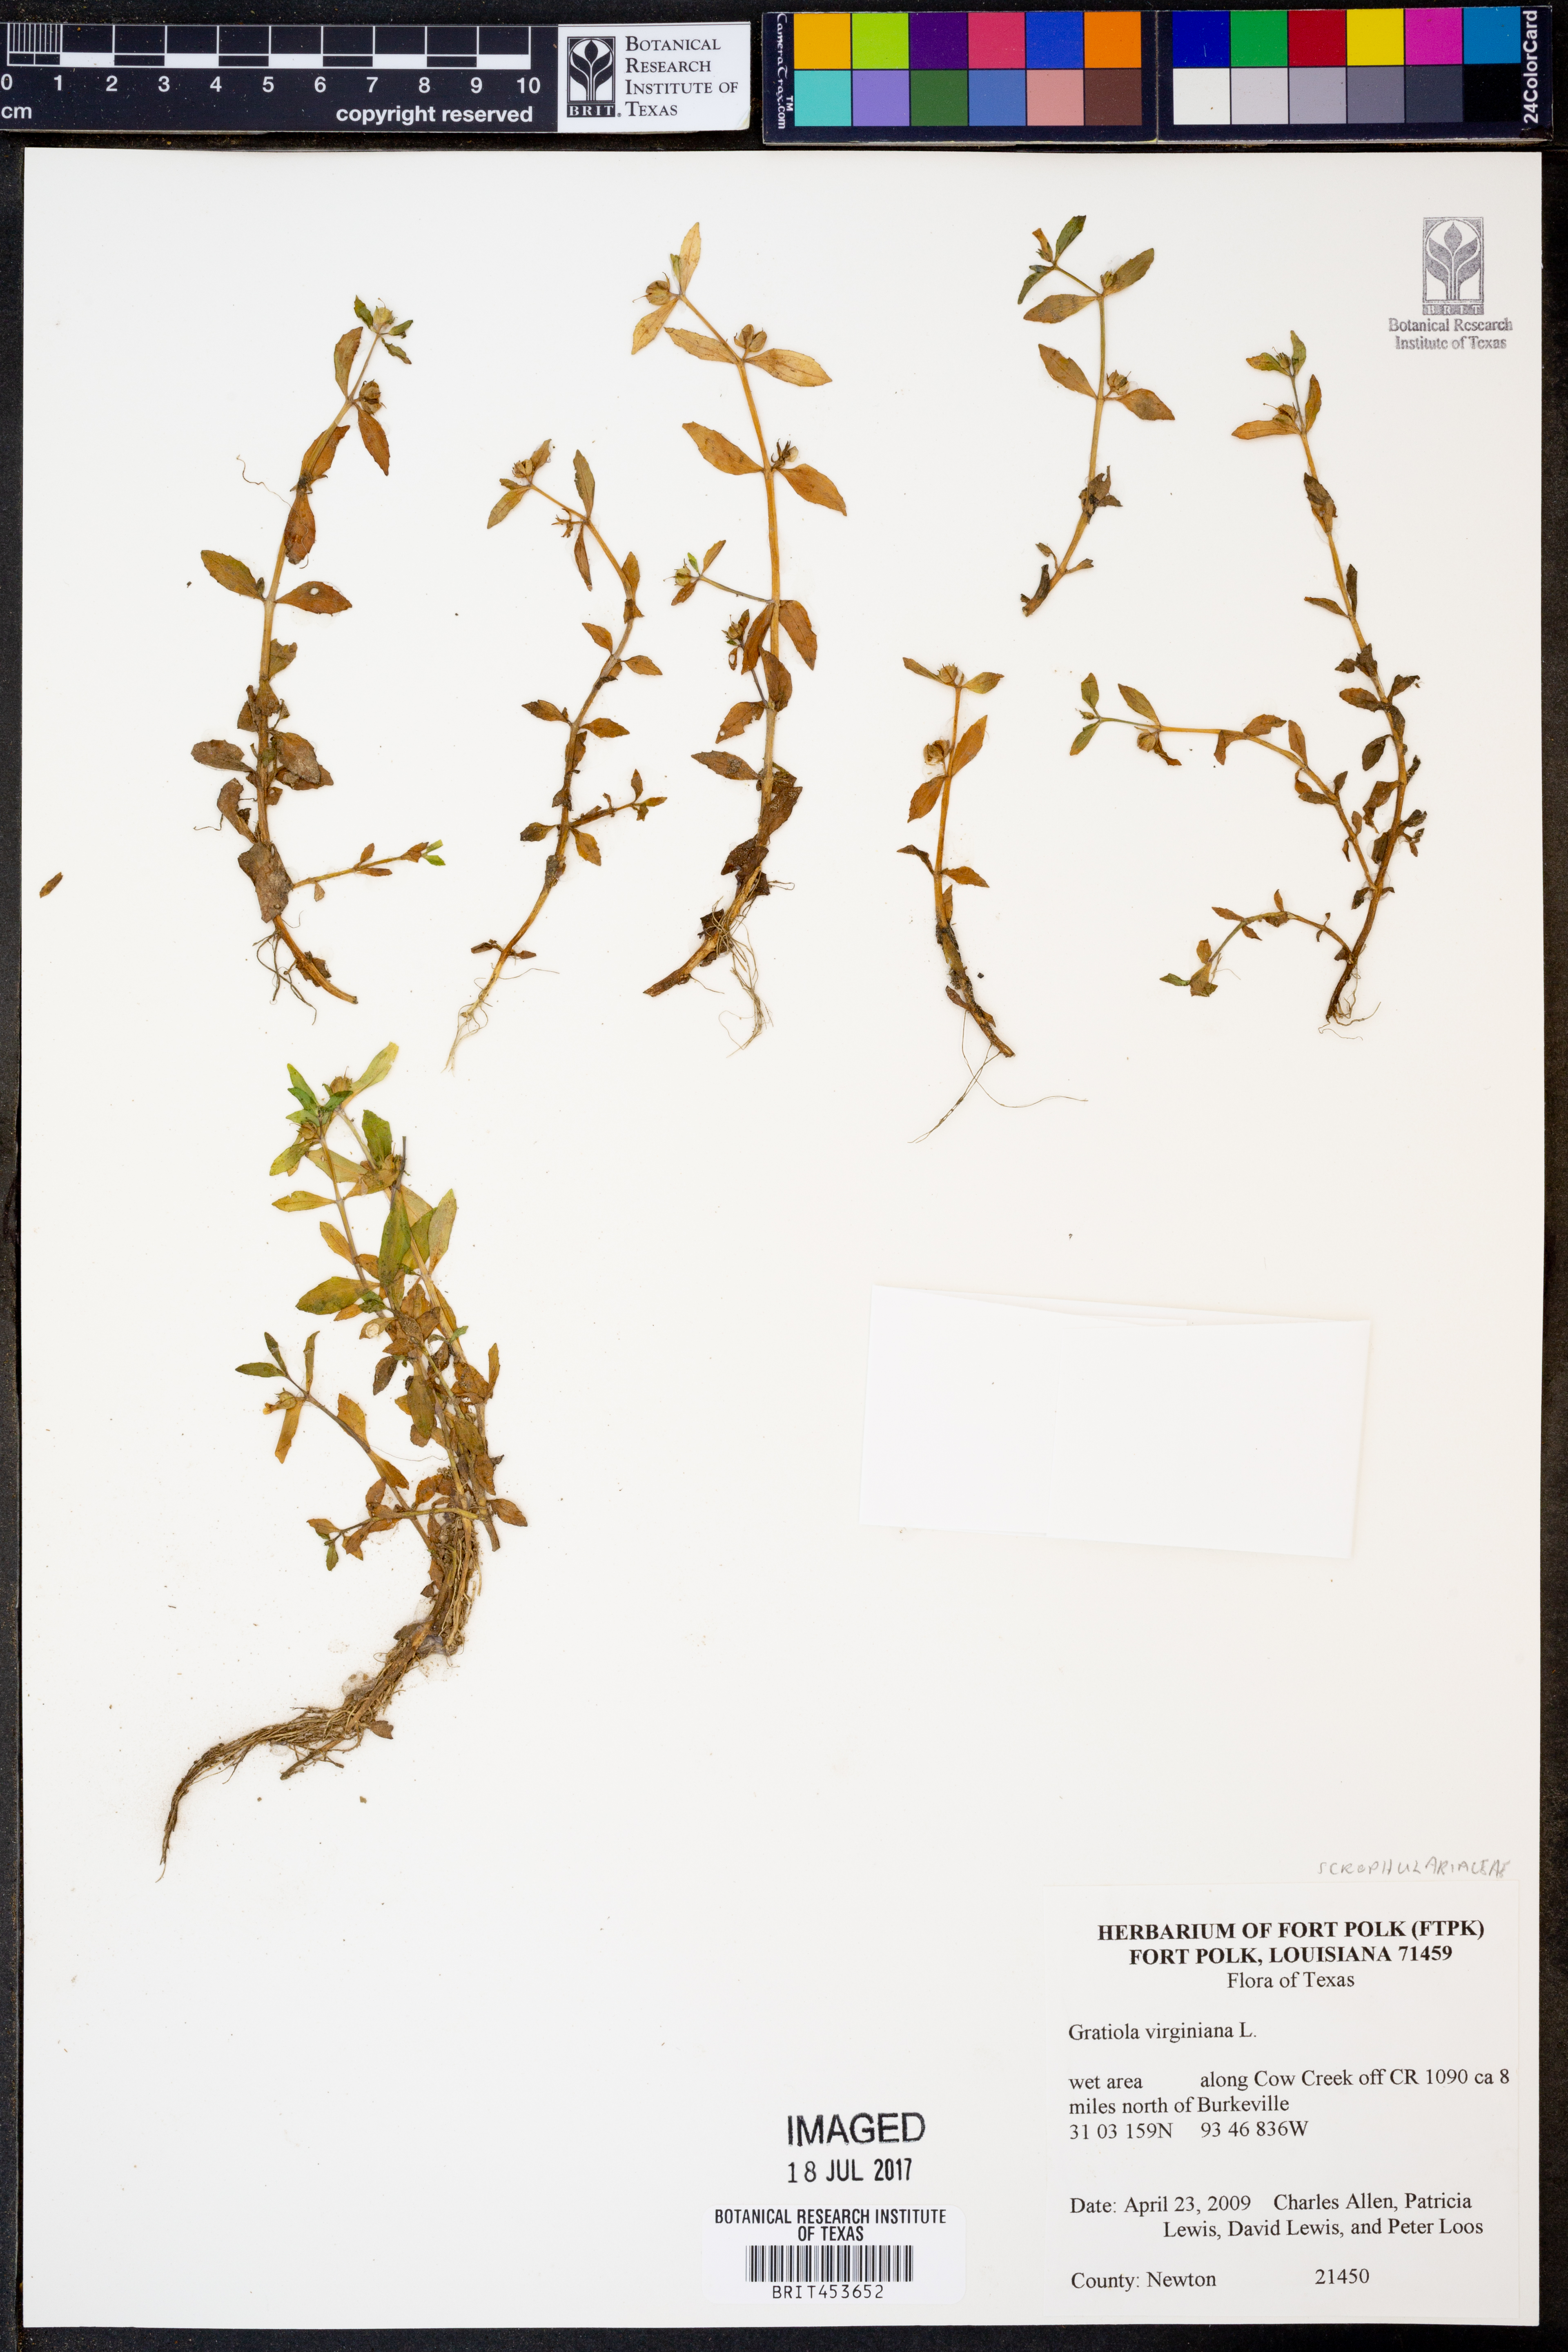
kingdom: Plantae
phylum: Tracheophyta
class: Magnoliopsida
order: Lamiales
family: Plantaginaceae
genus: Gratiola
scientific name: Gratiola virginiana
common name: Roundfruit hedgehyssop
